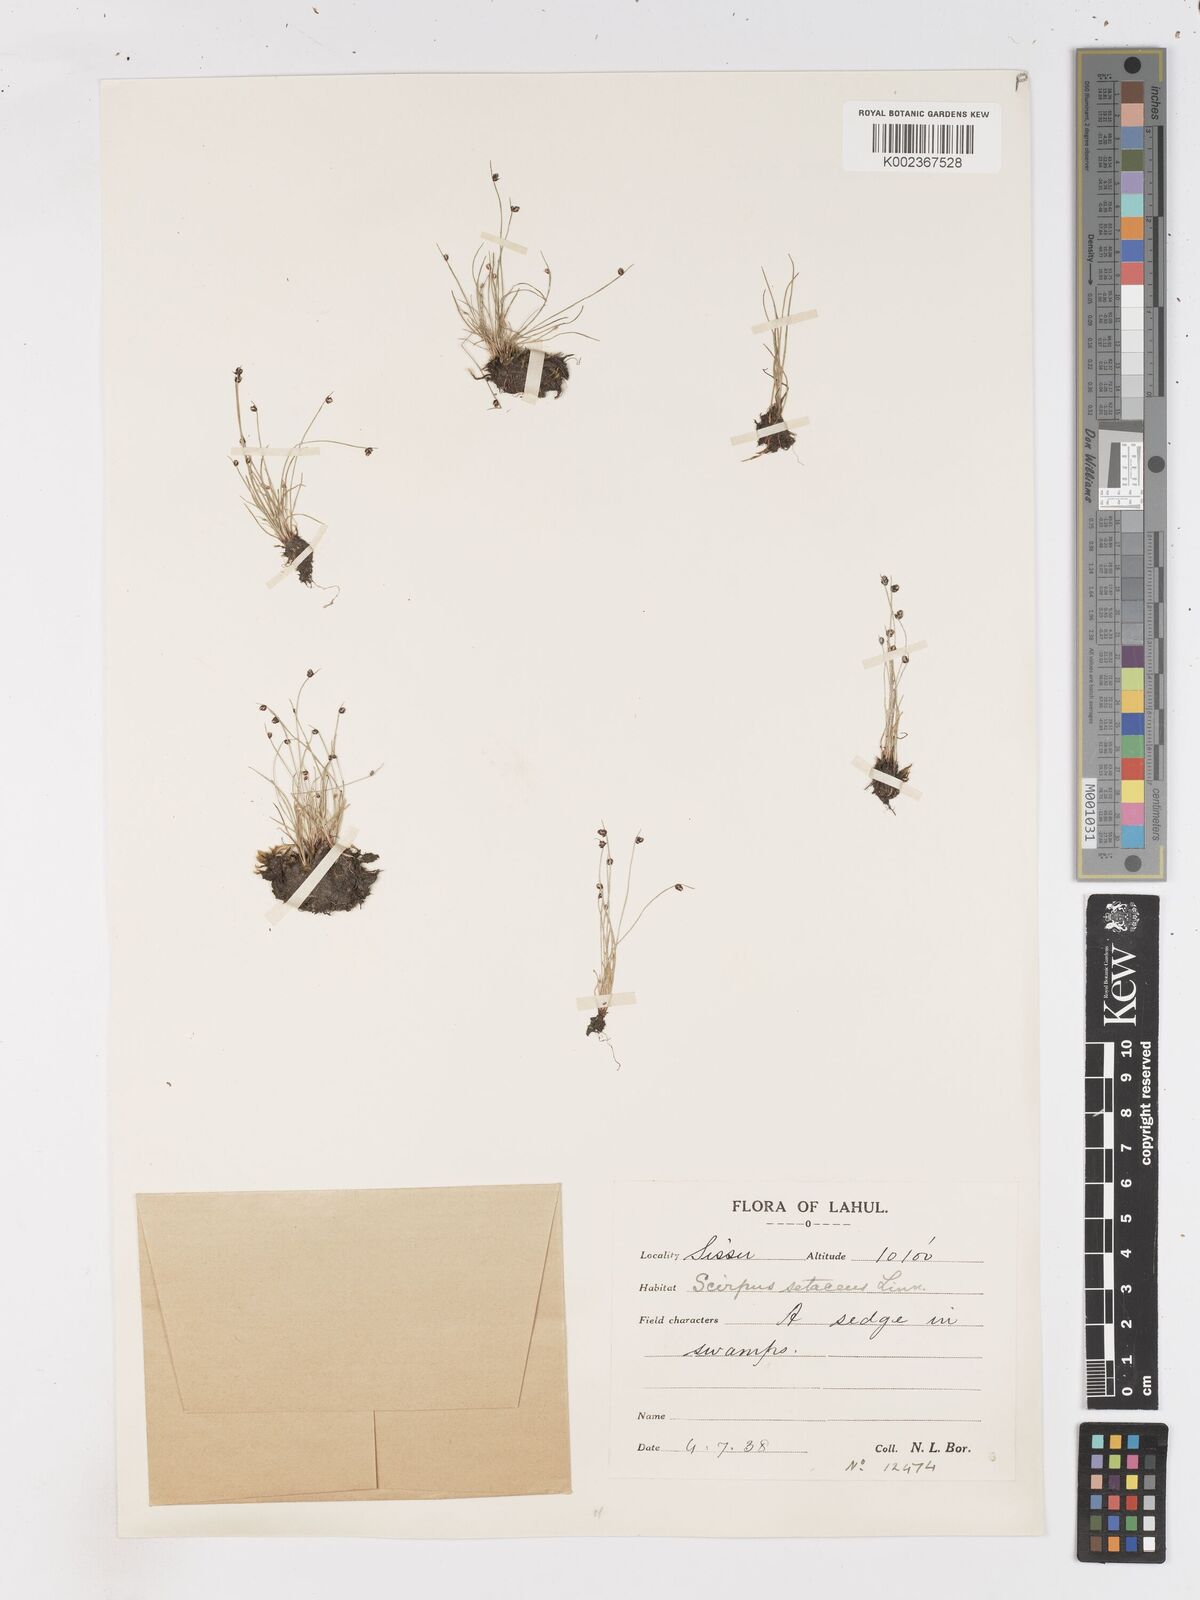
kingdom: Plantae
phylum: Tracheophyta
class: Liliopsida
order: Poales
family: Cyperaceae
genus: Isolepis
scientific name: Isolepis setacea
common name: Bristle club-rush
